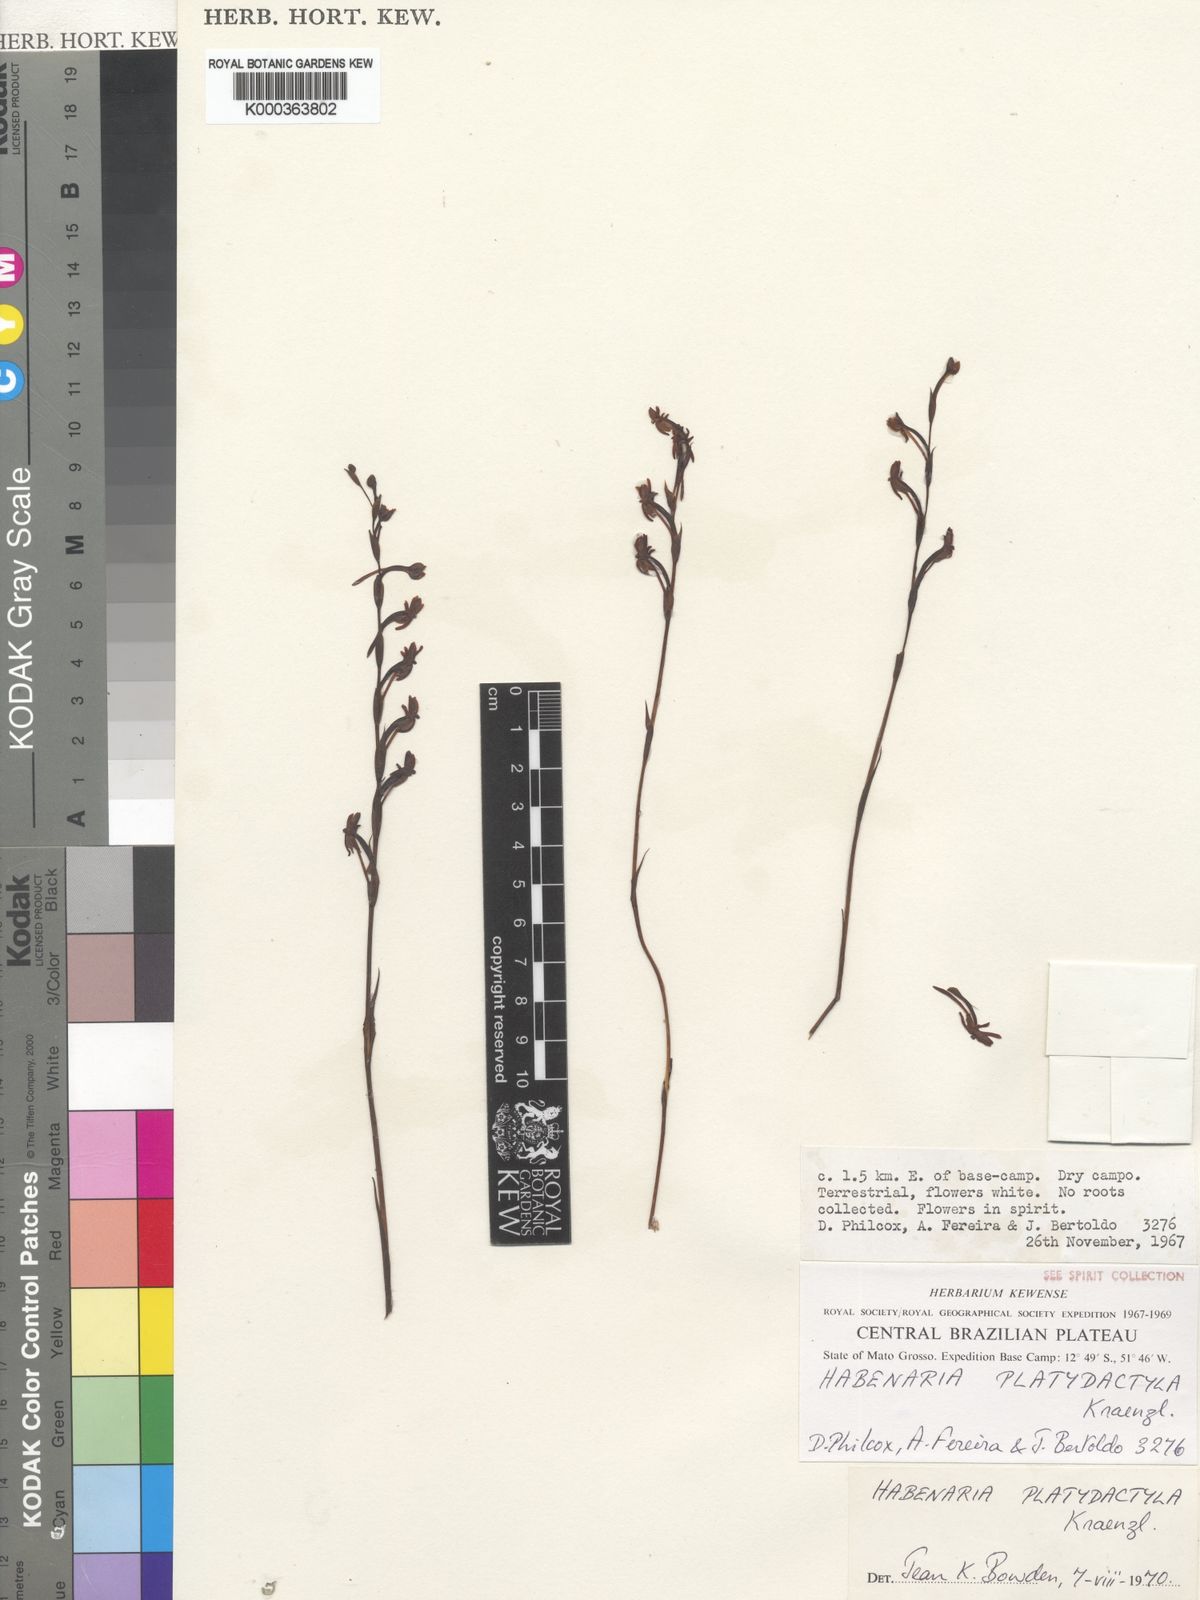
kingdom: Plantae
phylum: Tracheophyta
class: Liliopsida
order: Asparagales
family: Orchidaceae
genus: Habenaria
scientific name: Habenaria leprieurii
